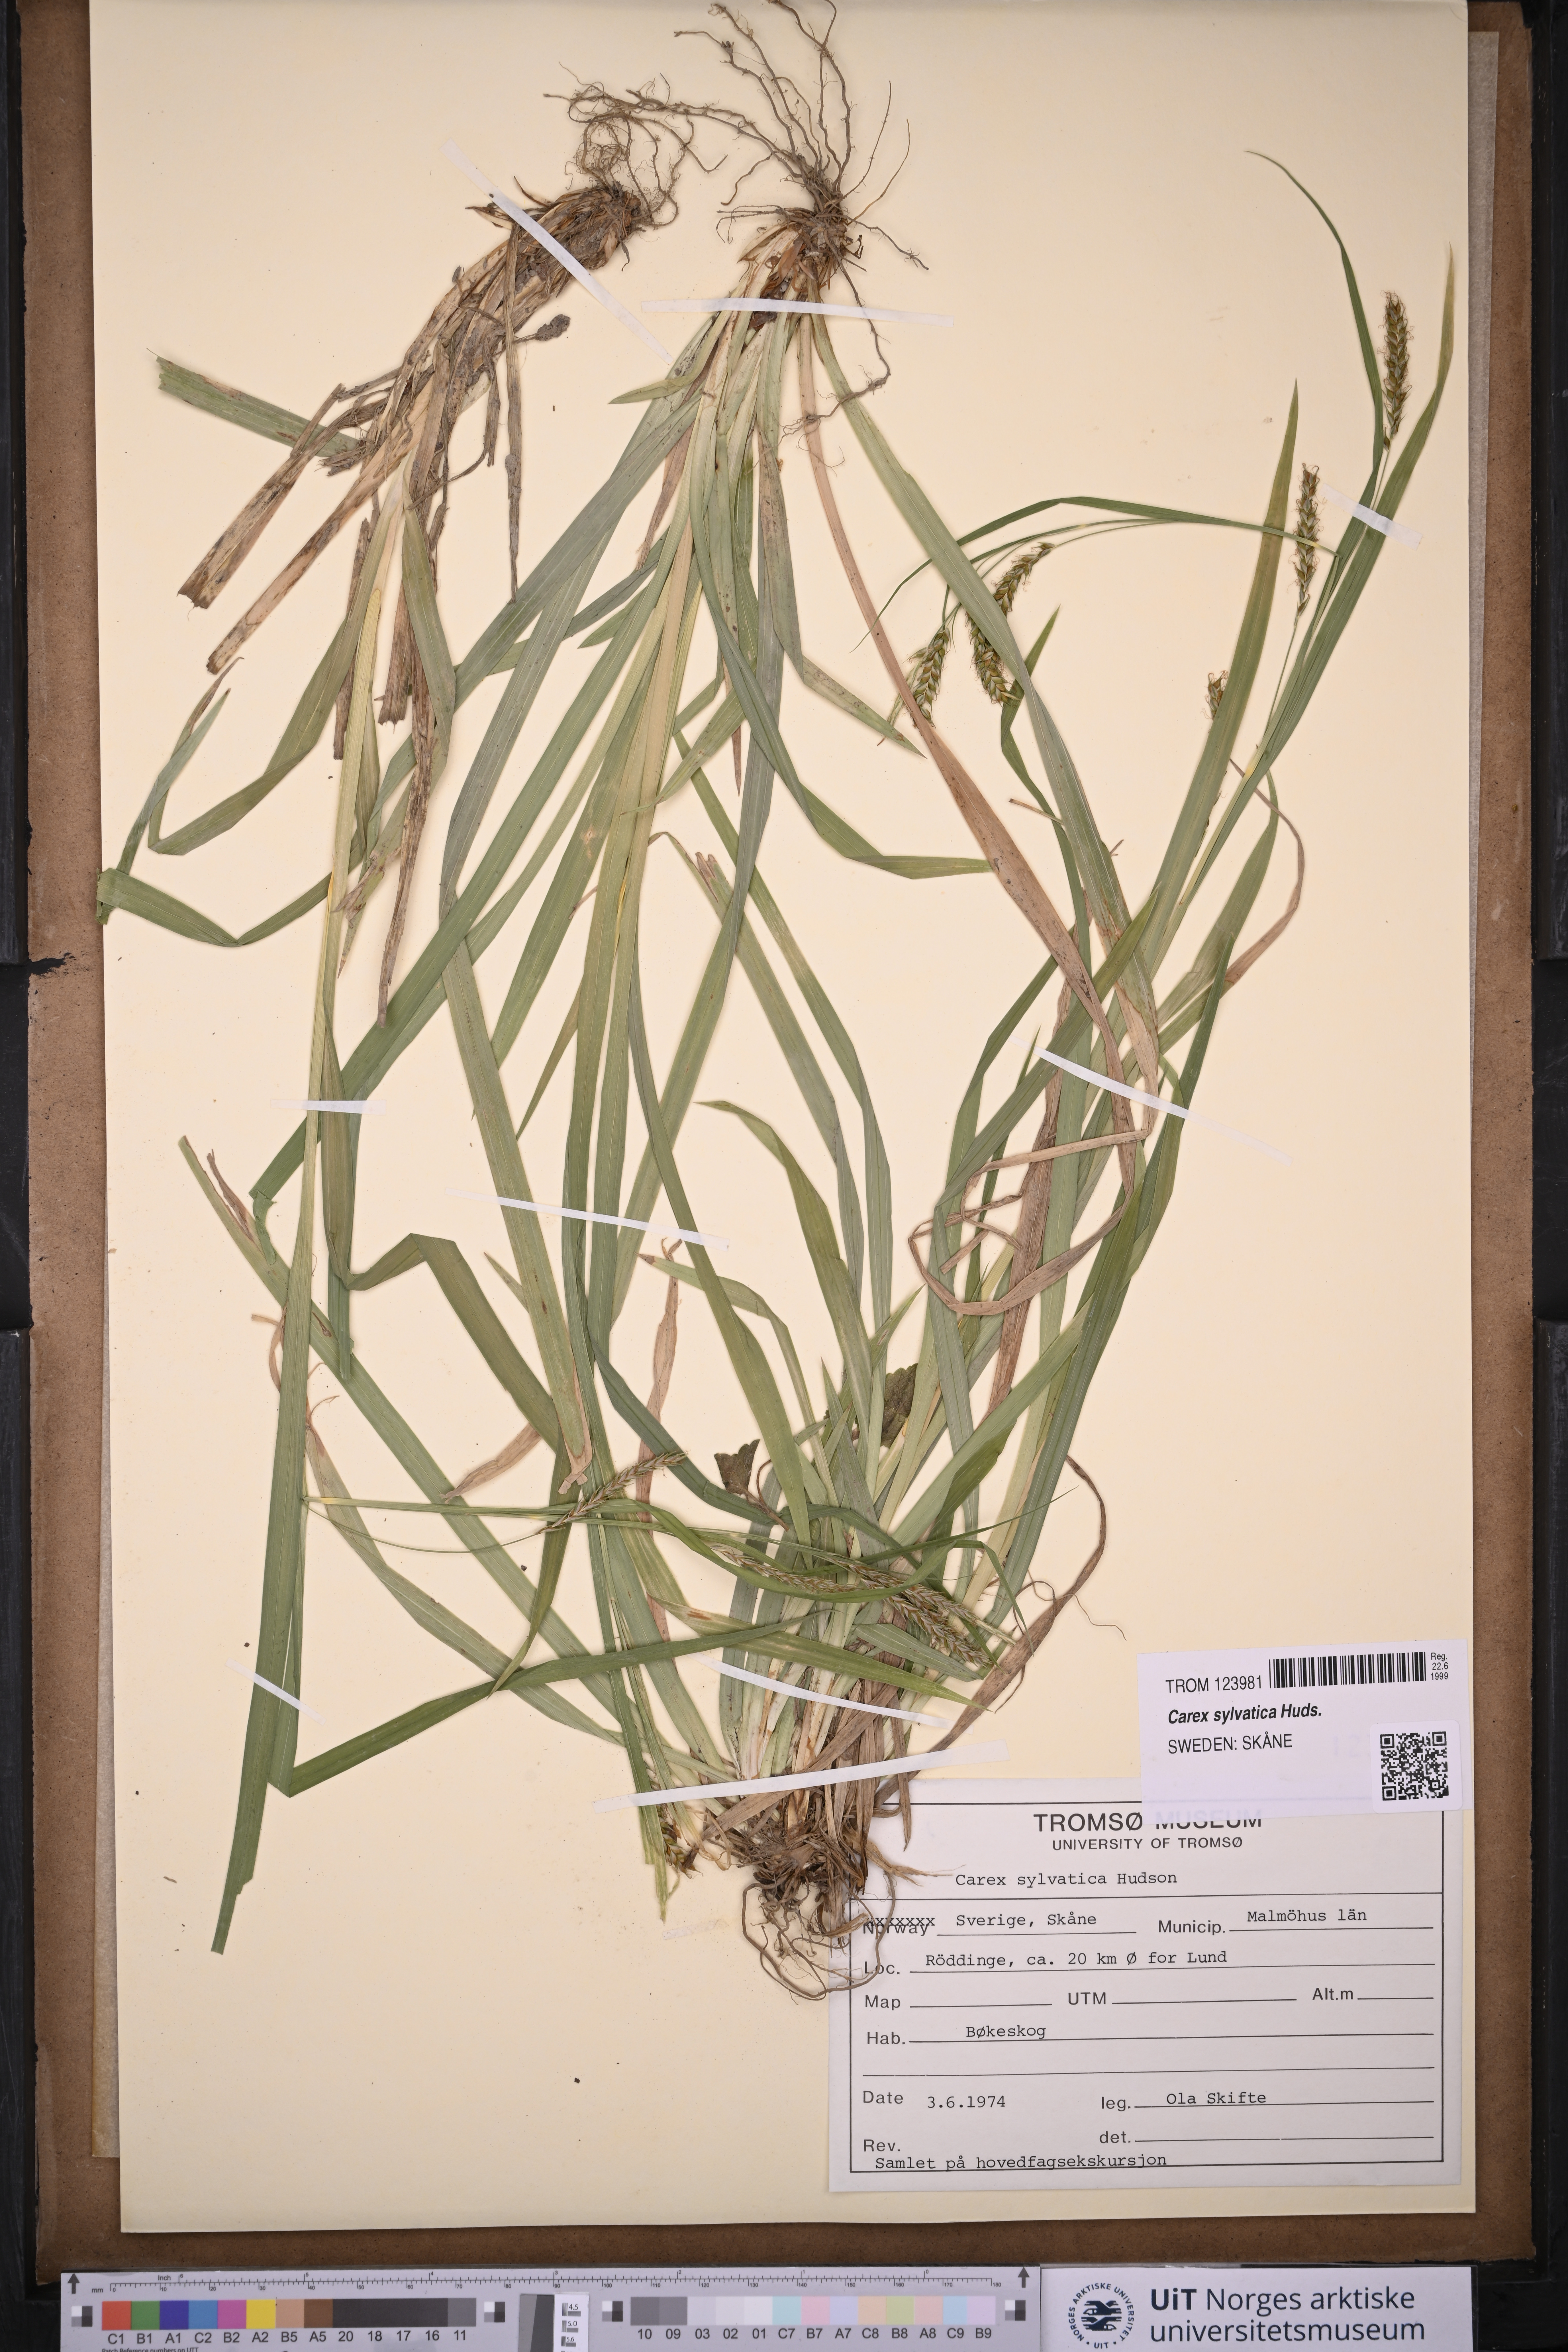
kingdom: Plantae
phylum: Tracheophyta
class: Liliopsida
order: Poales
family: Cyperaceae
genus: Carex
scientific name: Carex sylvatica
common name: Wood-sedge
